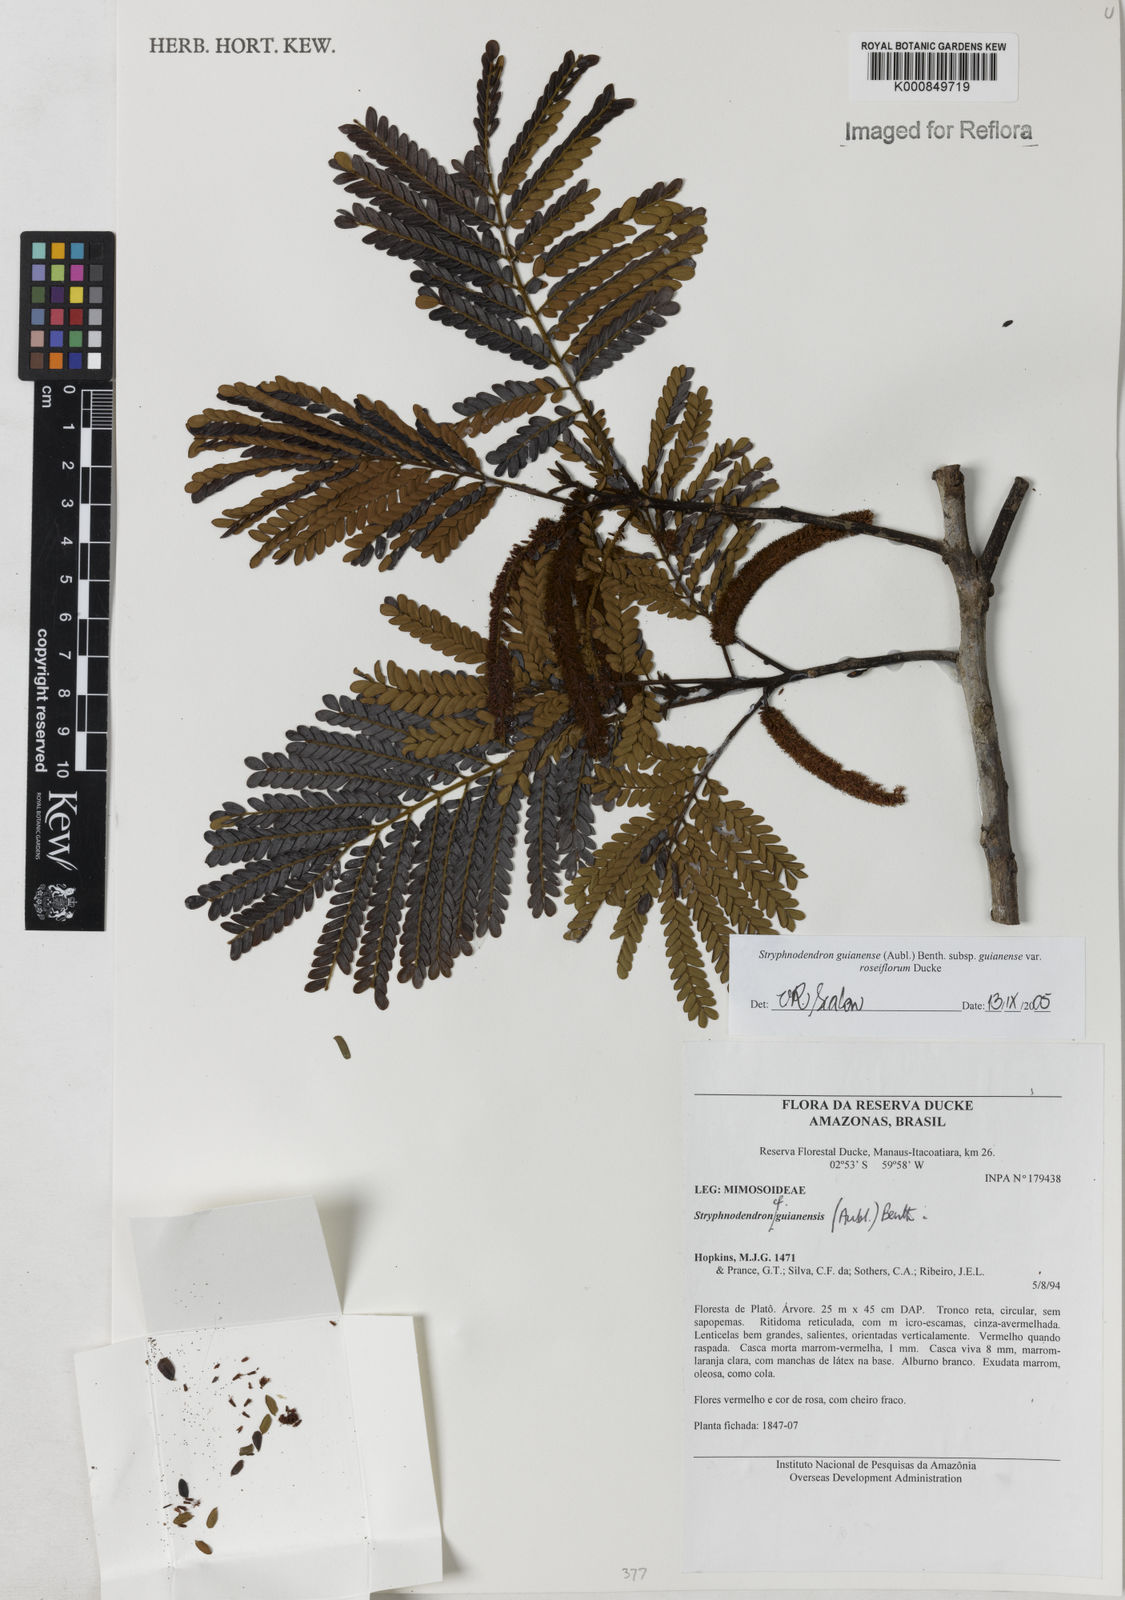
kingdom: Plantae
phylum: Tracheophyta
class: Magnoliopsida
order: Fabales
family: Fabaceae
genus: Stryphnodendron
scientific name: Stryphnodendron guianense
